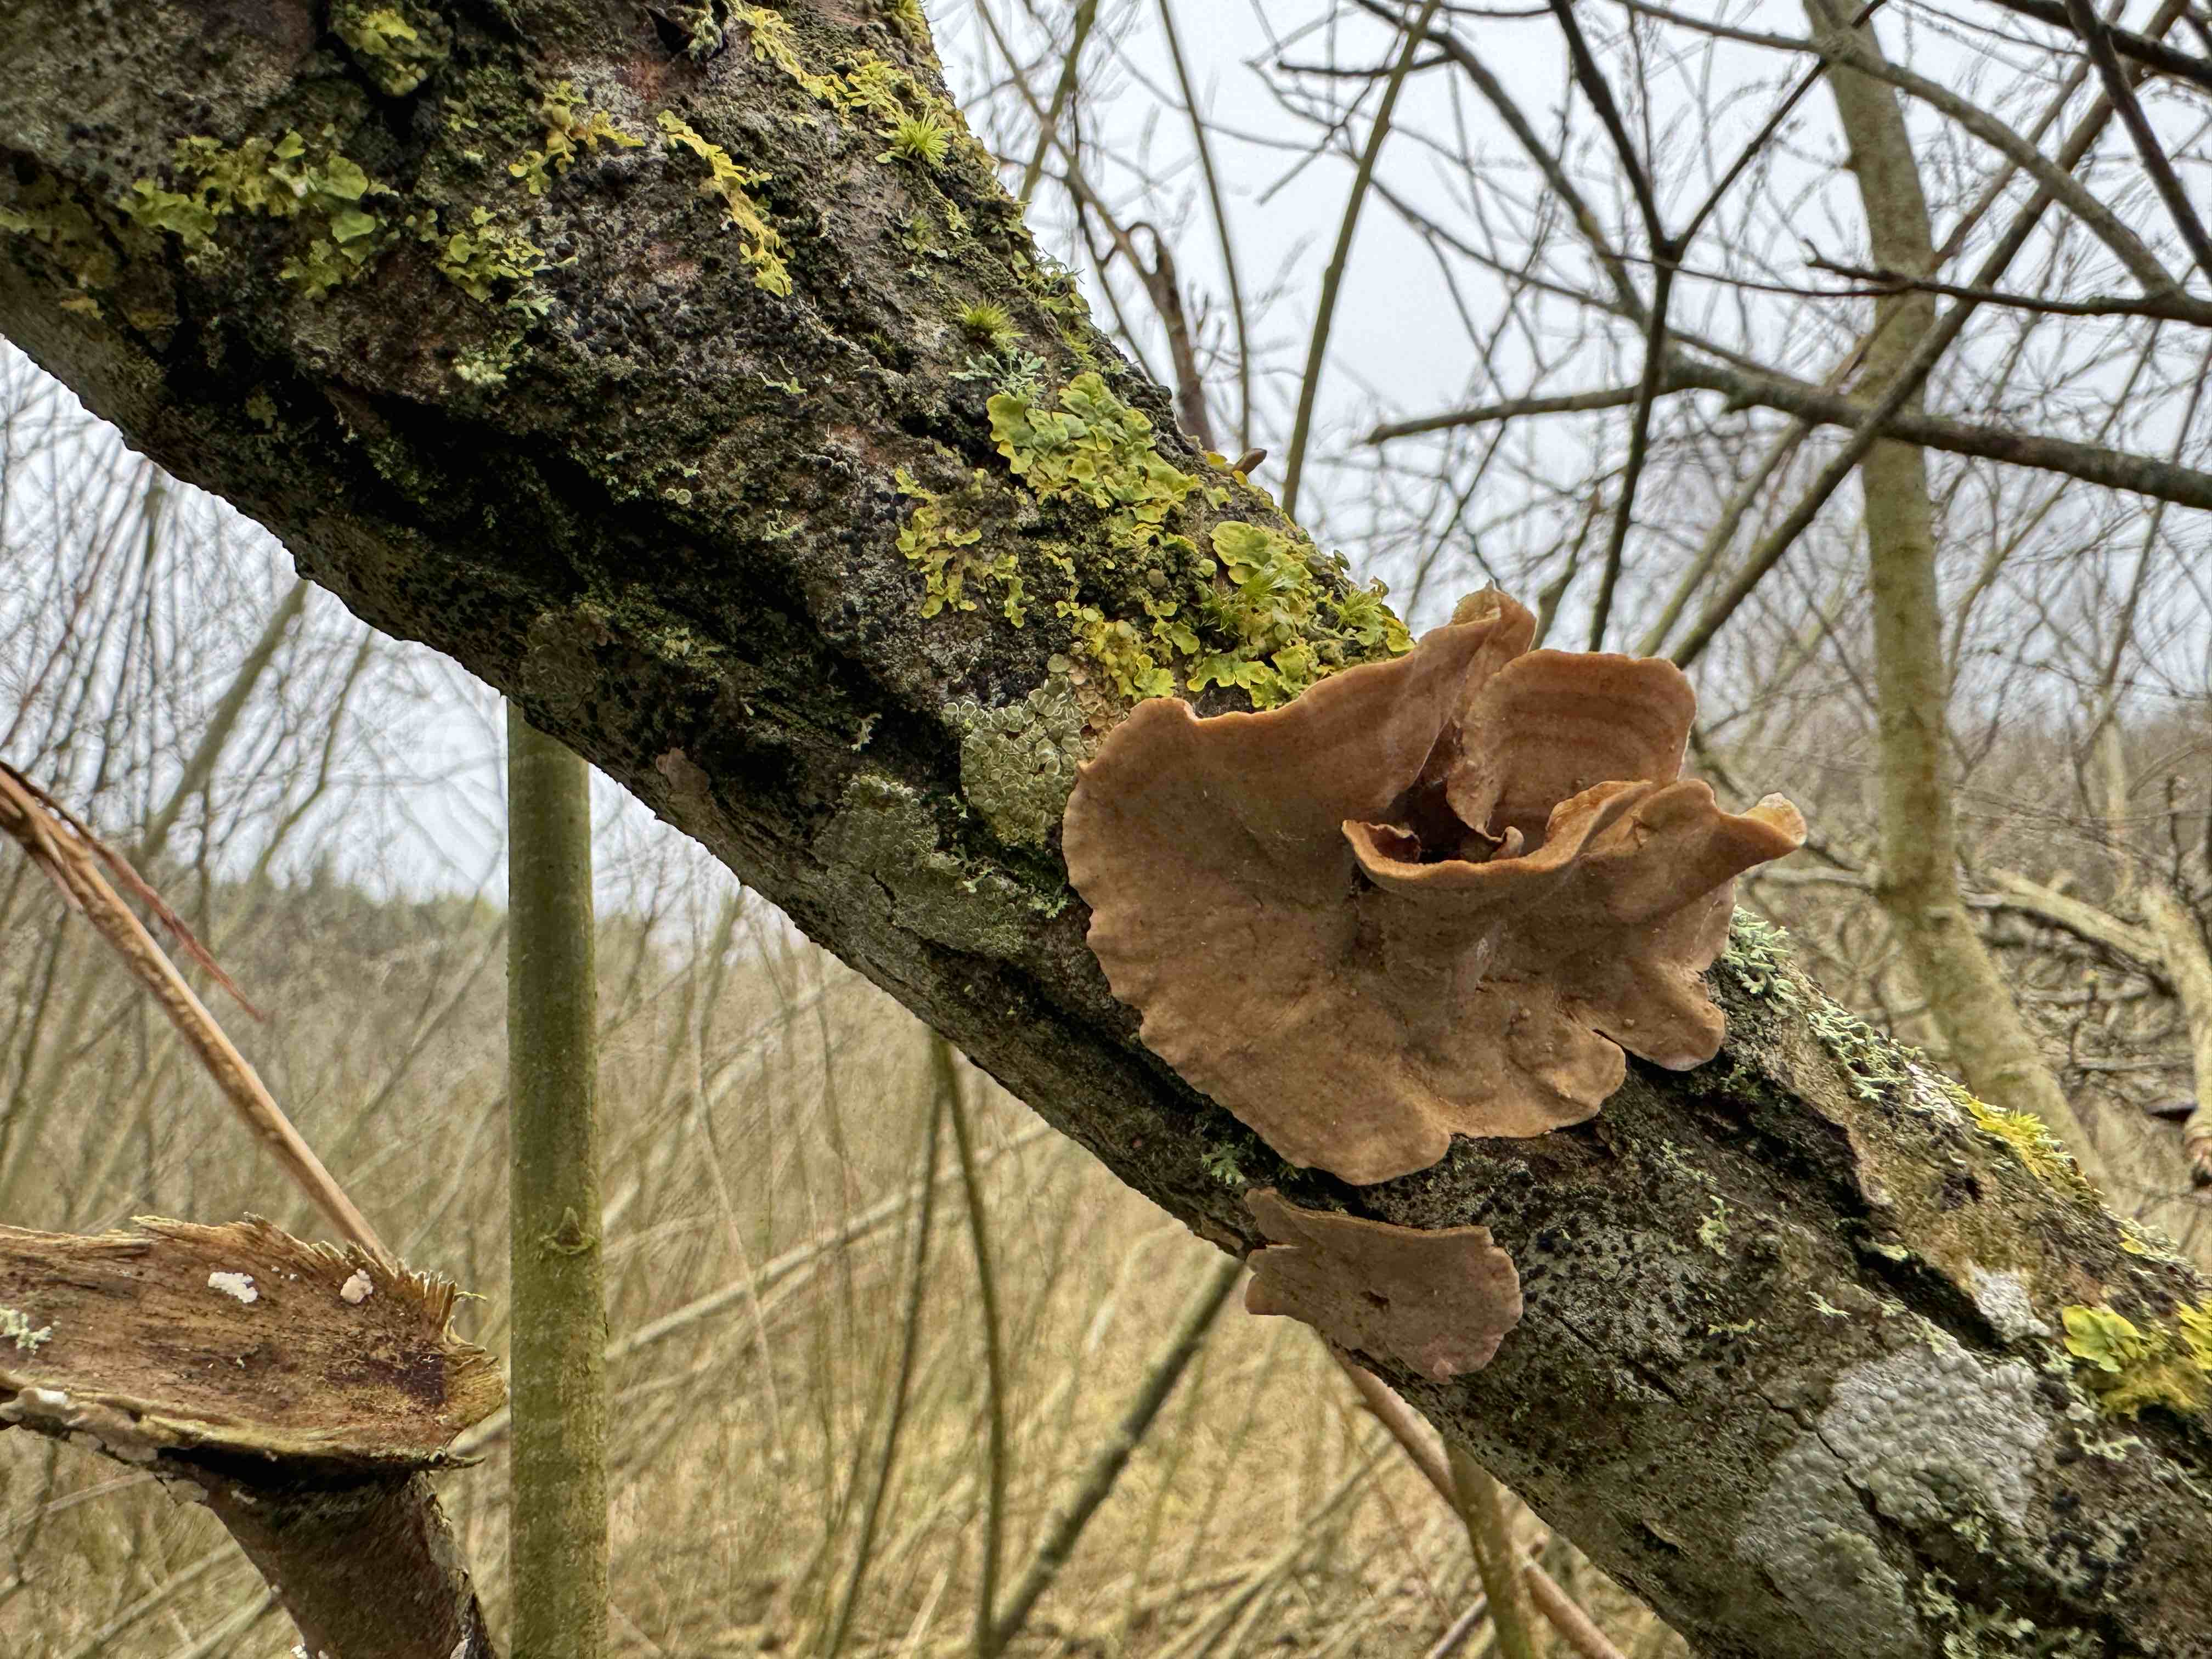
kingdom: Fungi
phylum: Basidiomycota
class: Agaricomycetes
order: Russulales
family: Stereaceae
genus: Stereum
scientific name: Stereum subtomentosum
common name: smuk lædersvamp
